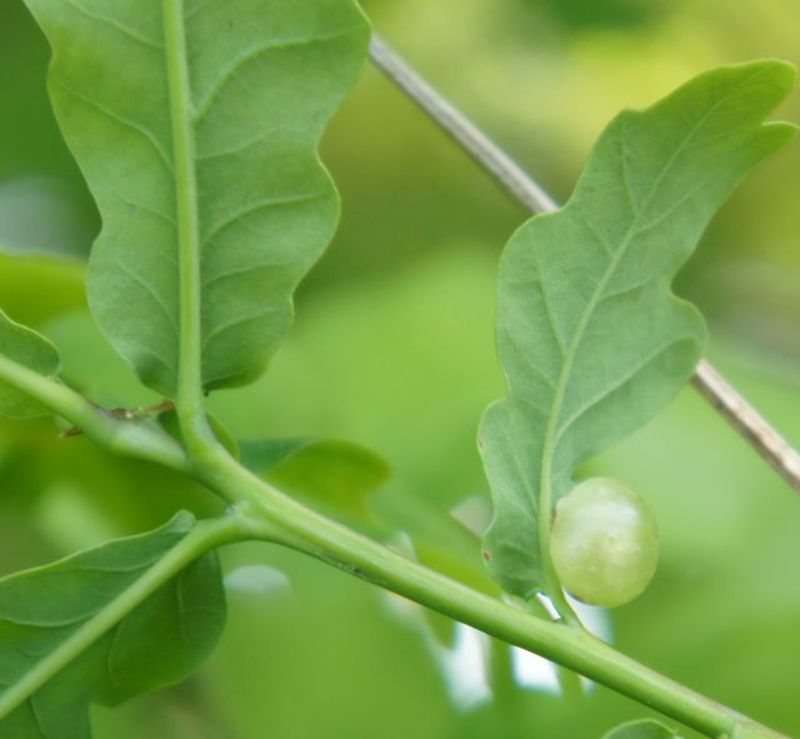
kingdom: Animalia
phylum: Arthropoda
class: Insecta
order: Hymenoptera
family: Cynipidae
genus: Cynips
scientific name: Cynips quercusfolii
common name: Cherry gall
